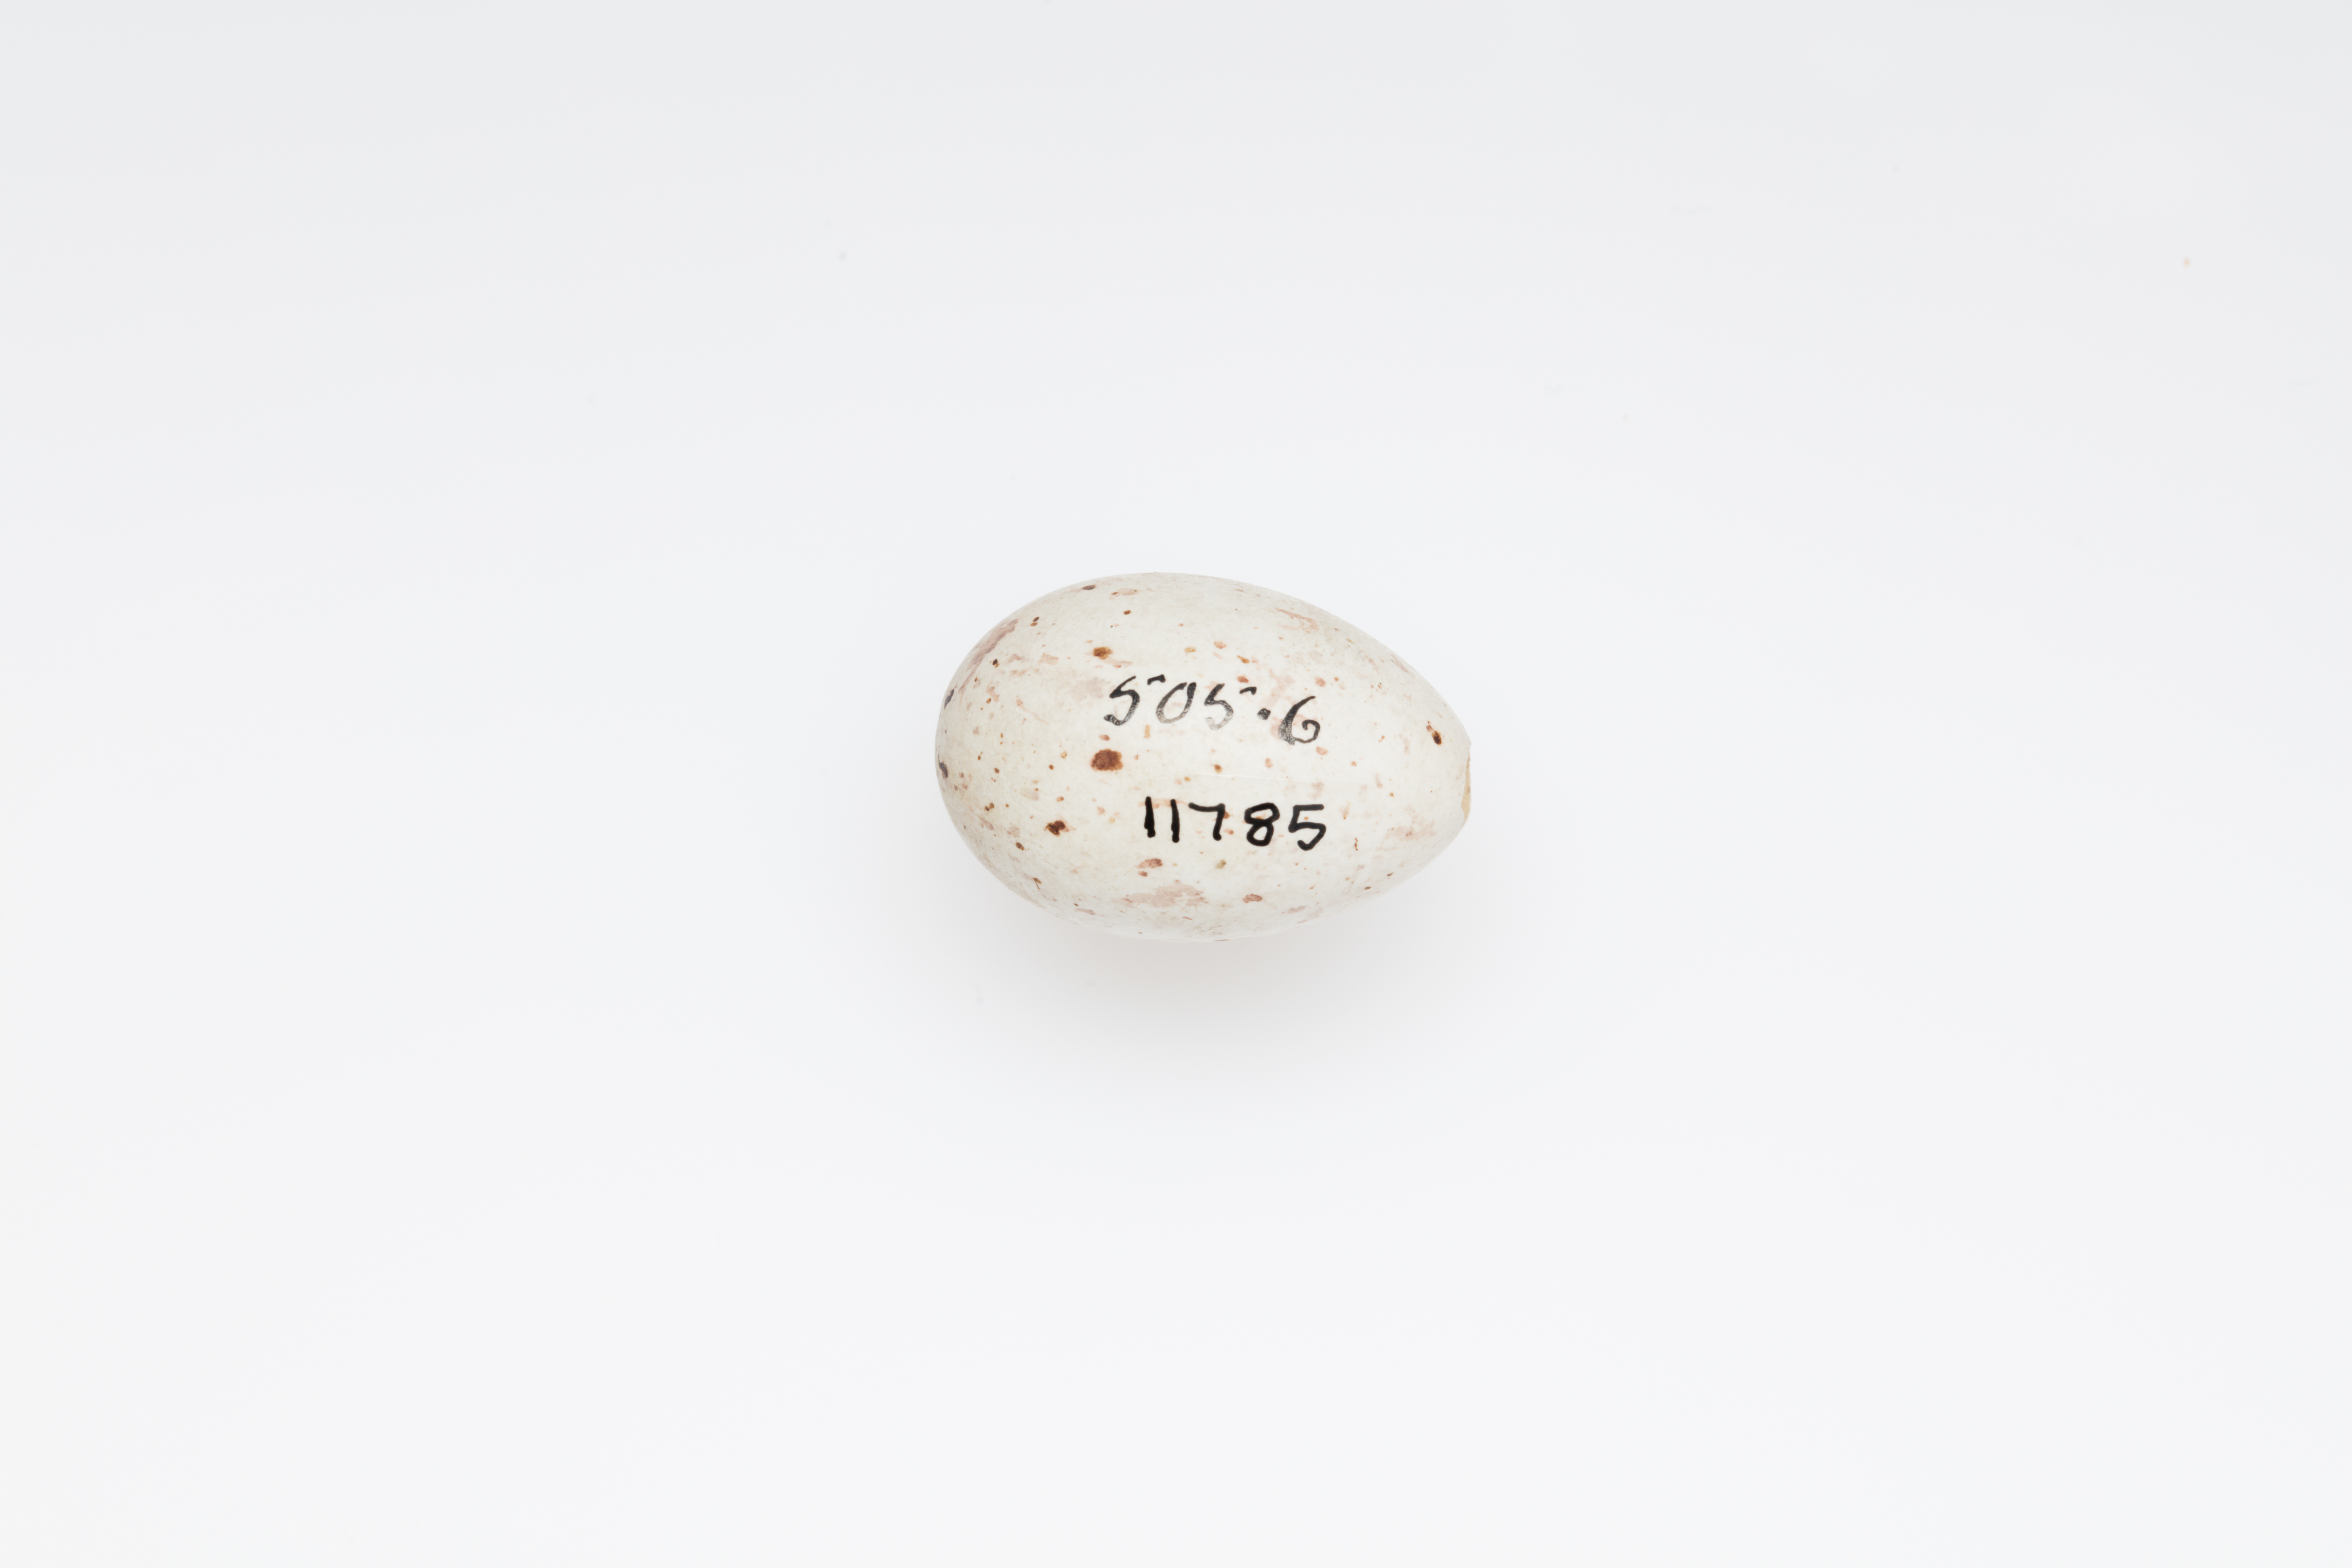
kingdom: Plantae
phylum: Tracheophyta
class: Liliopsida
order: Poales
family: Poaceae
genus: Chloris
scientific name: Chloris chloris
